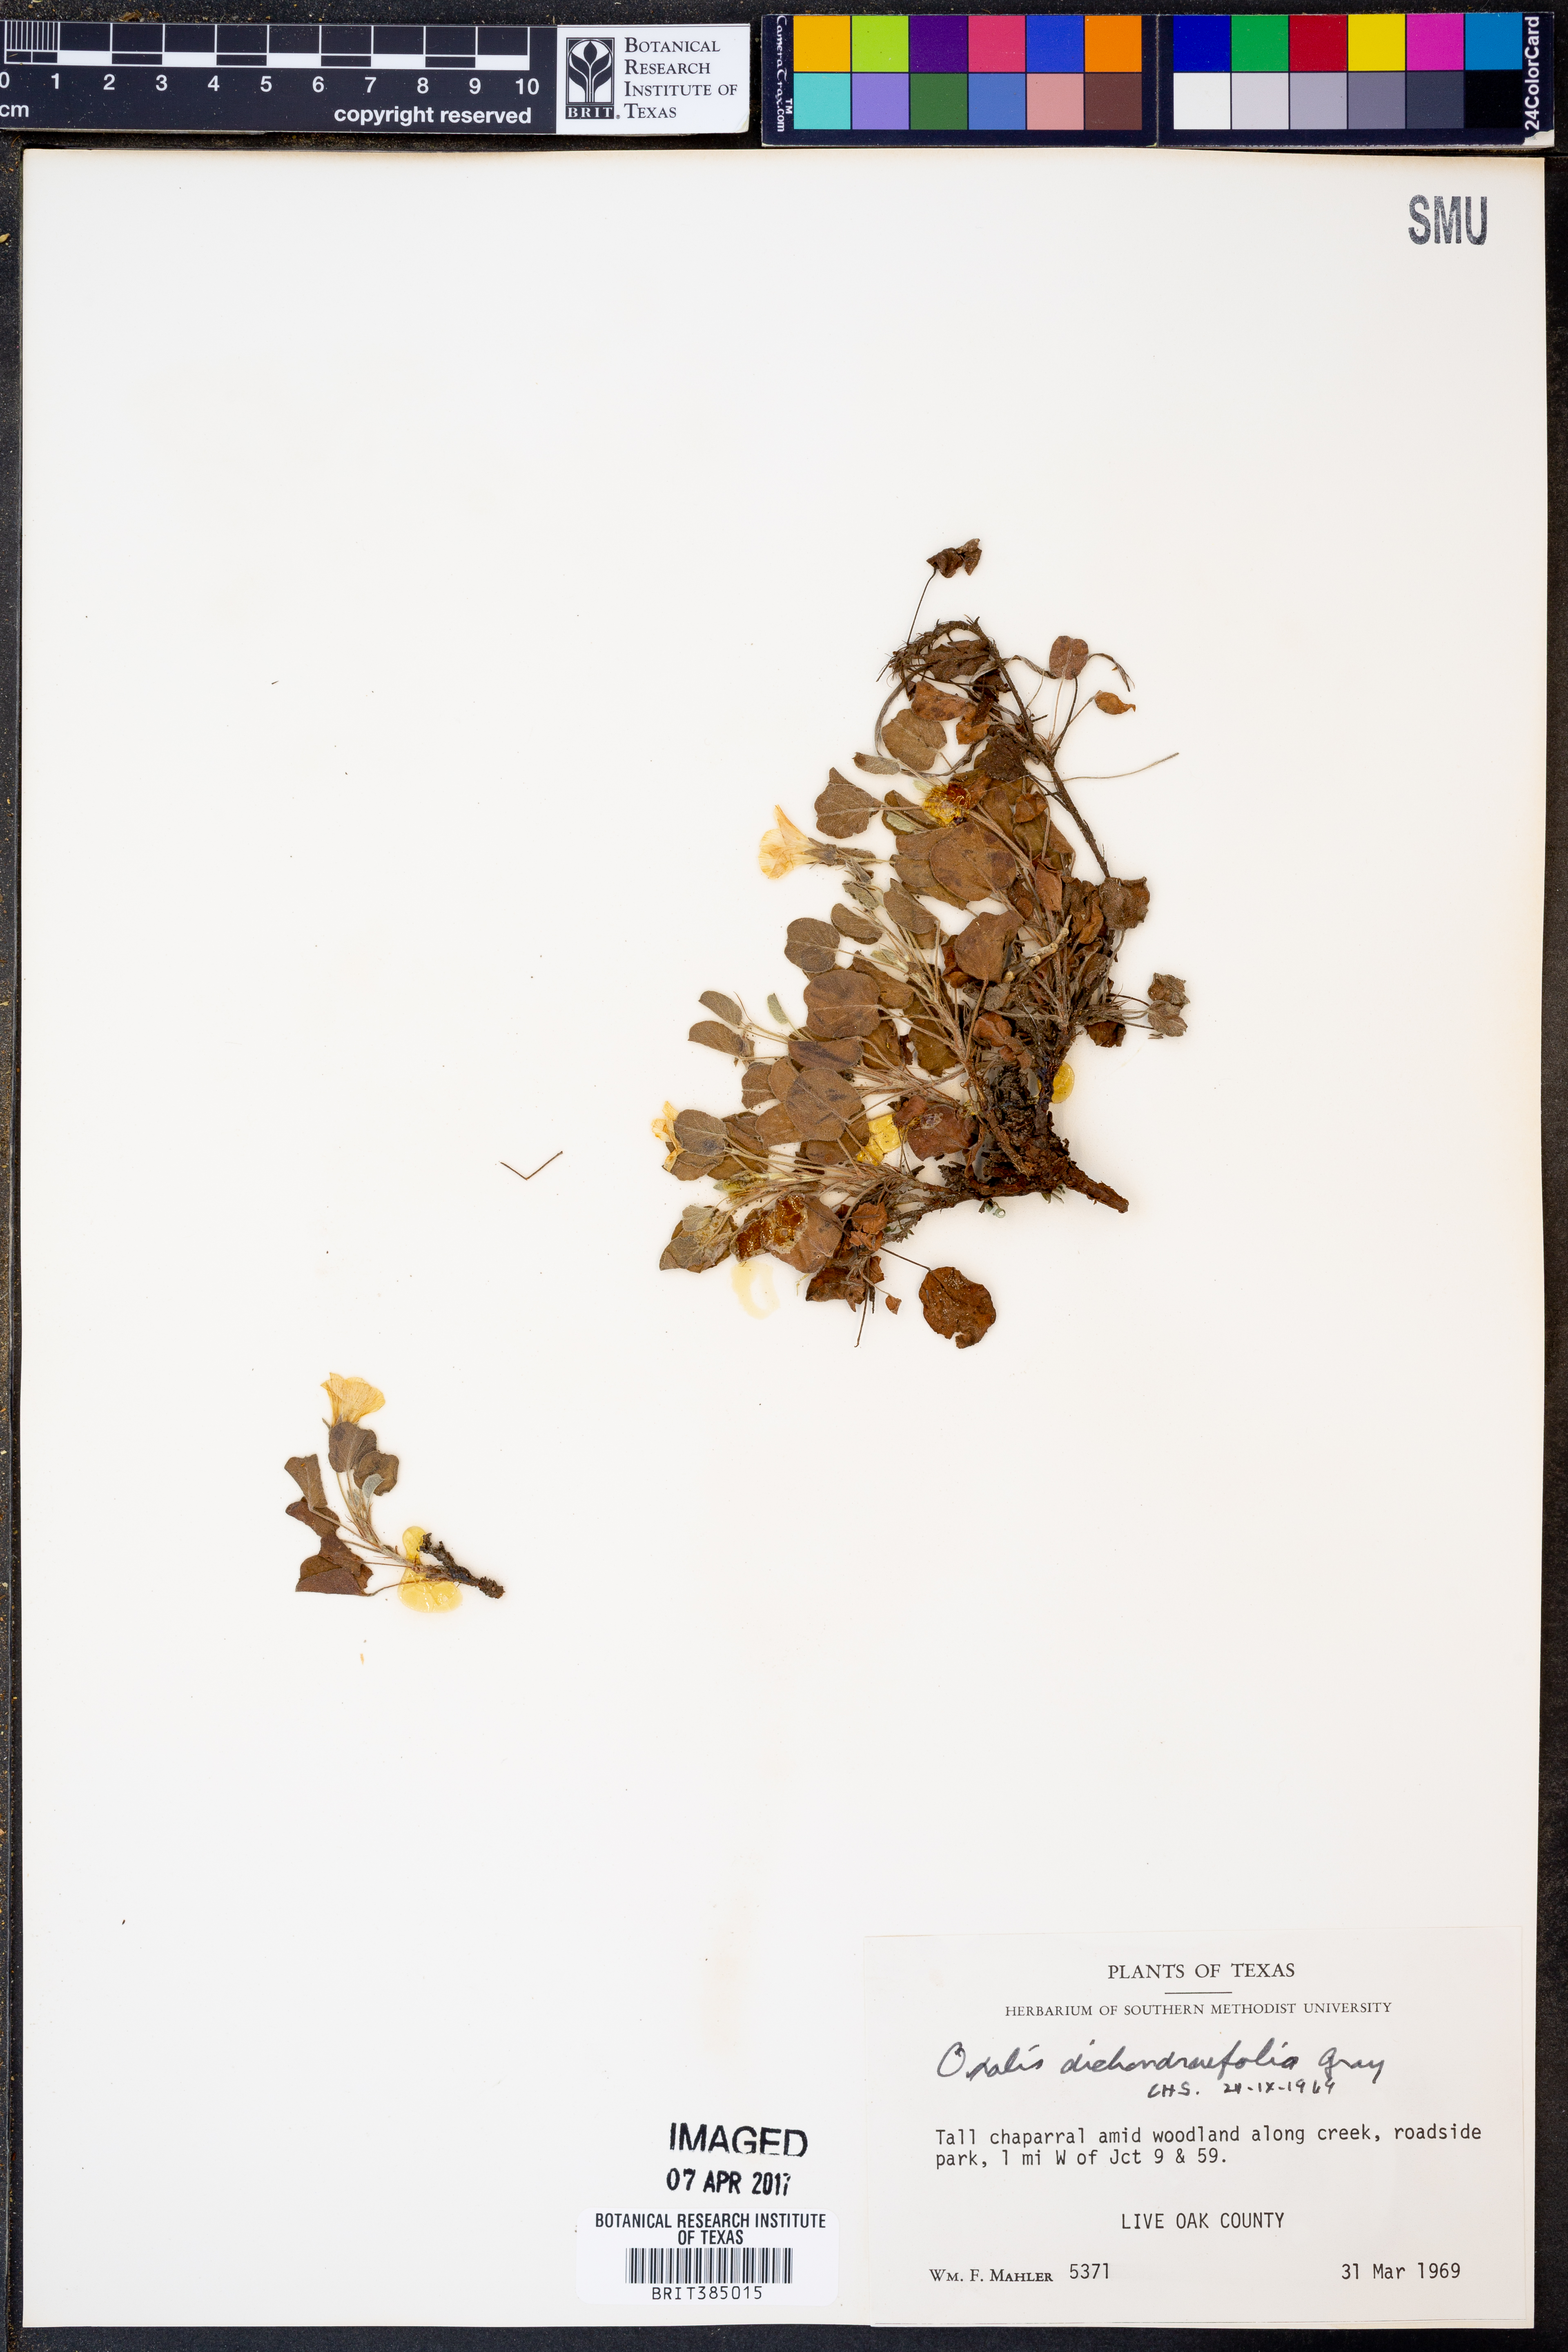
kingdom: Plantae
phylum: Tracheophyta
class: Magnoliopsida
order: Oxalidales
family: Oxalidaceae
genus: Oxalis
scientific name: Oxalis dichondrifolia
